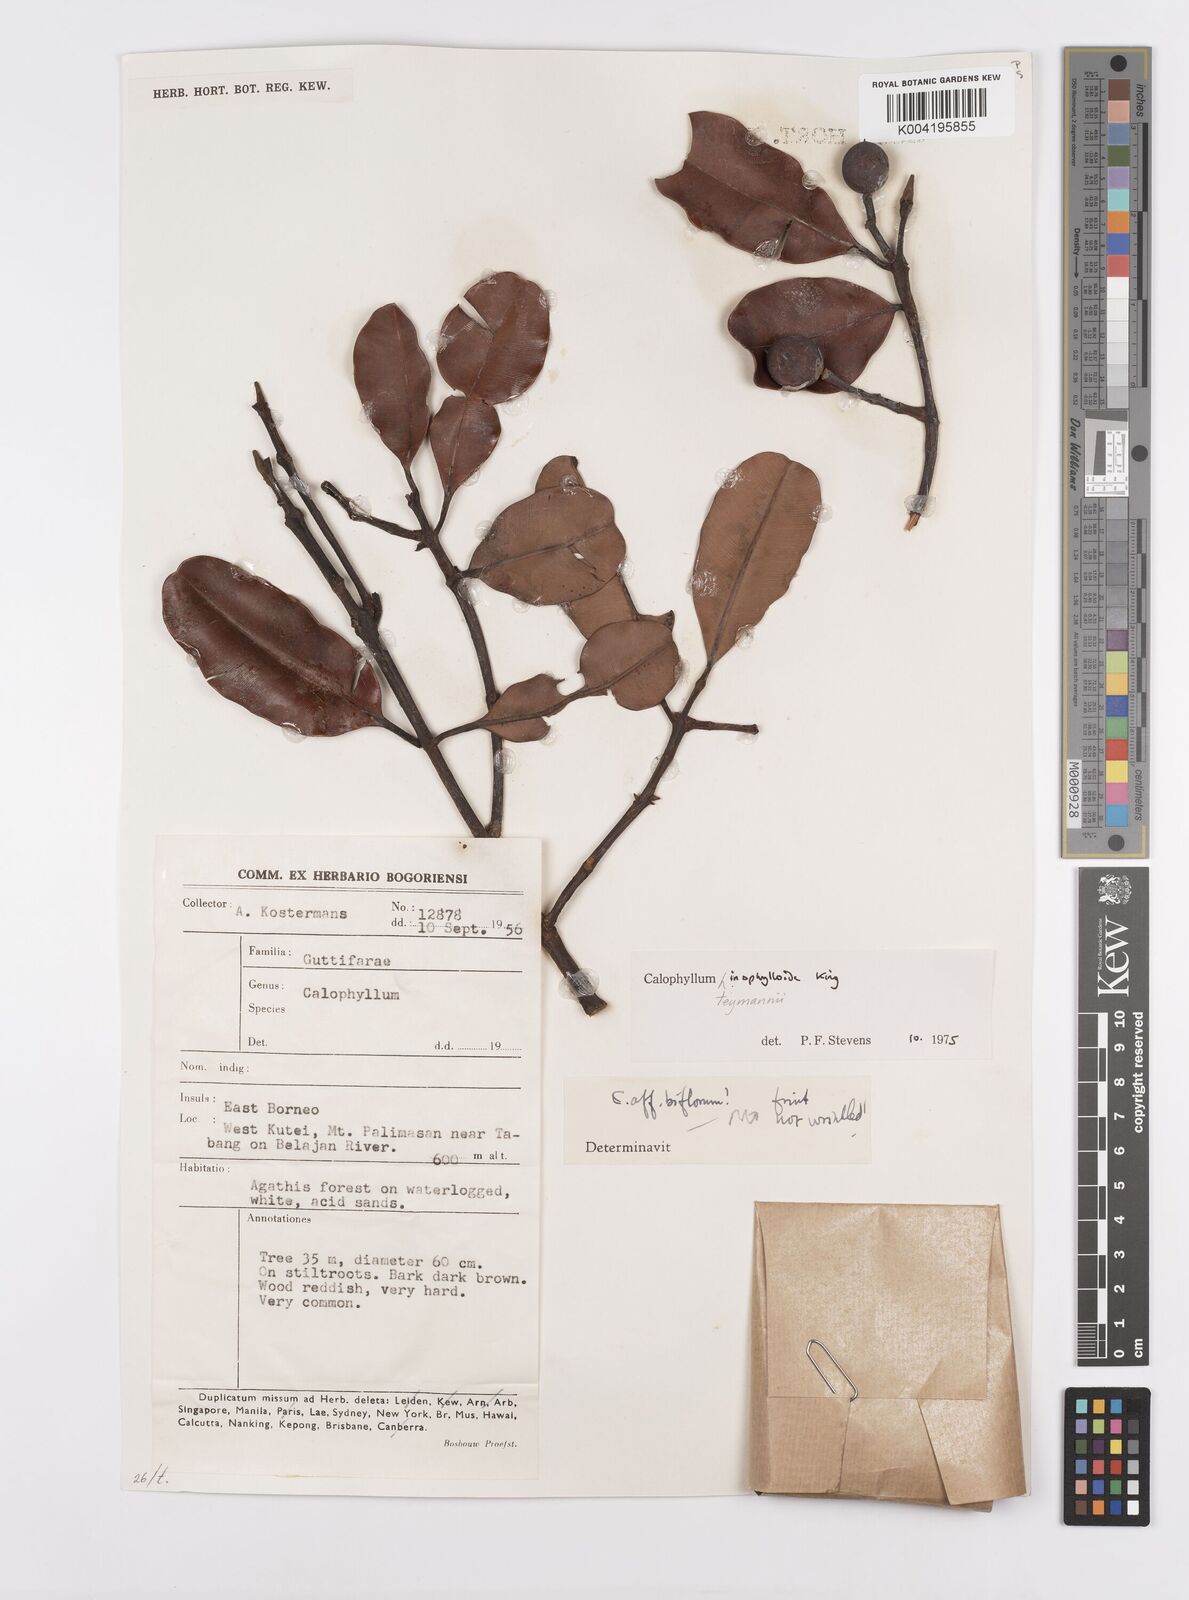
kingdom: Plantae
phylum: Tracheophyta
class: Magnoliopsida
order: Malpighiales
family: Calophyllaceae
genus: Calophyllum
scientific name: Calophyllum teysmannii
